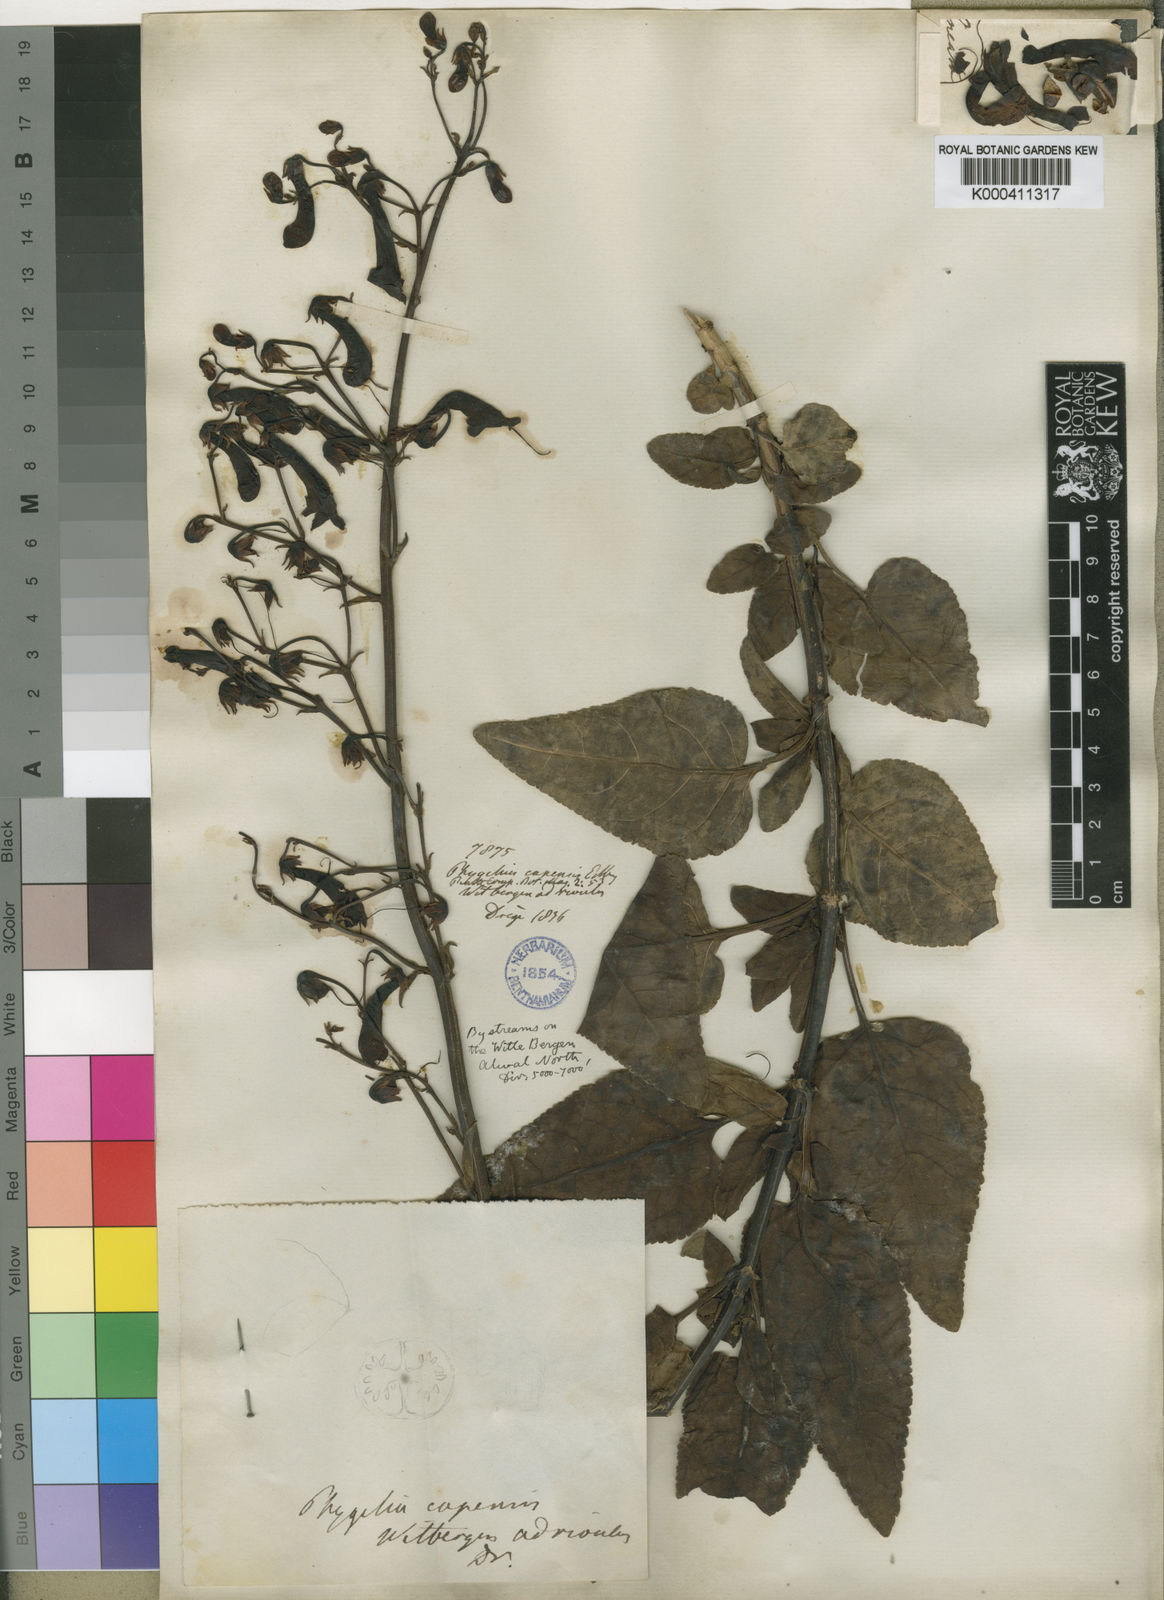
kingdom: Plantae
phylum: Tracheophyta
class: Magnoliopsida
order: Lamiales
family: Scrophulariaceae
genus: Phygelius
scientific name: Phygelius capensis
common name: Cape figwort
